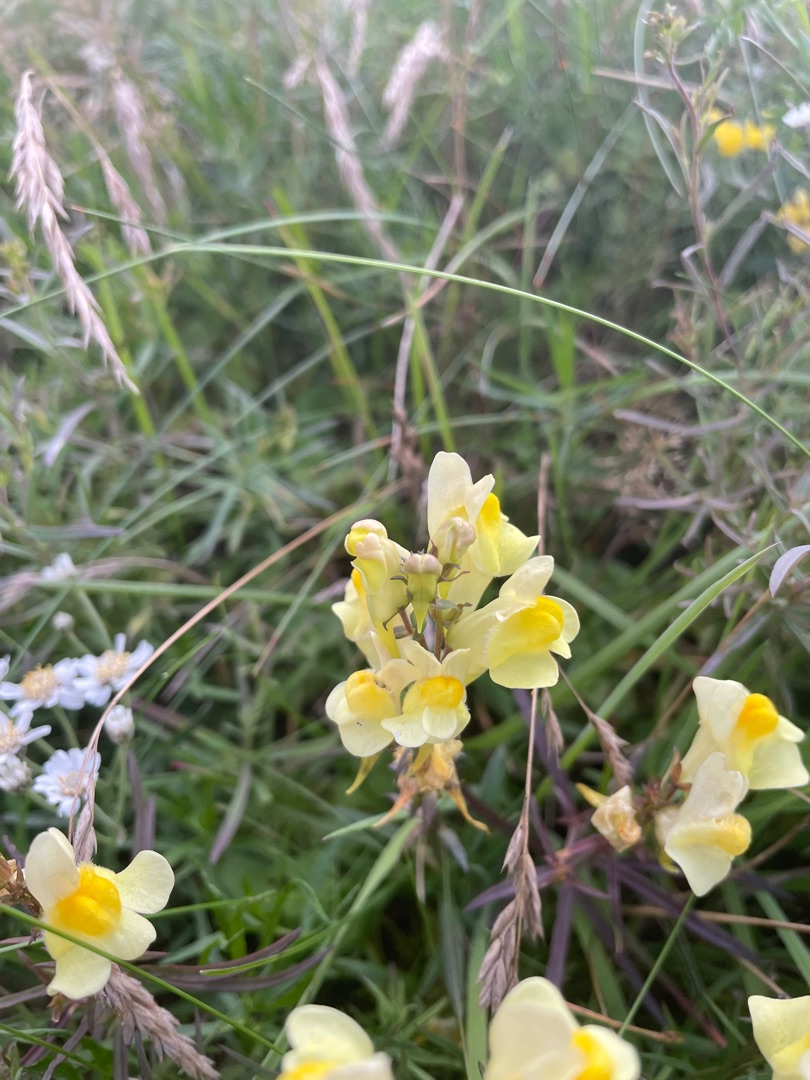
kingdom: Plantae
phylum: Tracheophyta
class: Magnoliopsida
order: Lamiales
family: Plantaginaceae
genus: Linaria
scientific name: Linaria vulgaris
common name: Almindelig torskemund
